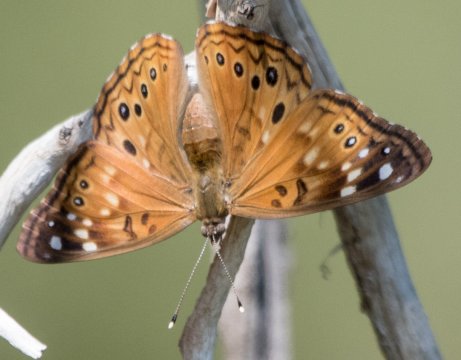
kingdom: Animalia
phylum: Arthropoda
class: Insecta
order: Lepidoptera
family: Nymphalidae
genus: Asterocampa
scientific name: Asterocampa celtis
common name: Hackberry Emperor
